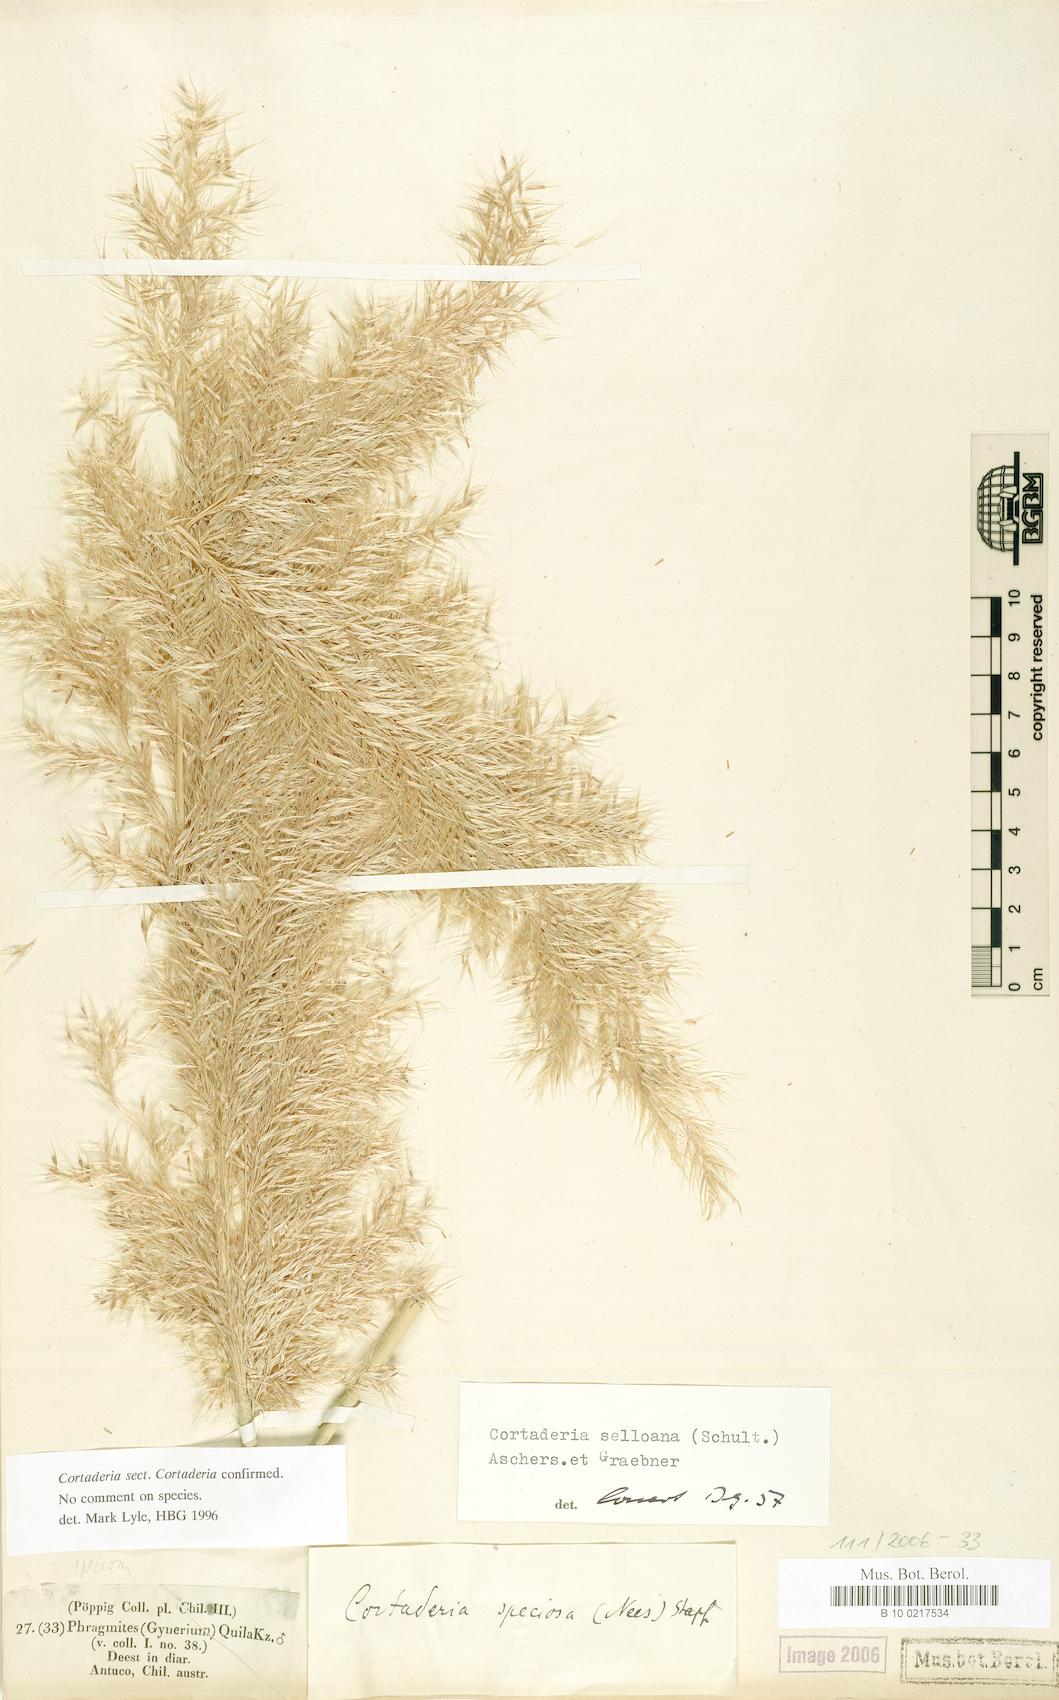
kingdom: Plantae
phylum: Tracheophyta
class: Liliopsida
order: Poales
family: Poaceae
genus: Cortaderia
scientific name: Cortaderia selloana
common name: Uruguayan pampas grass
